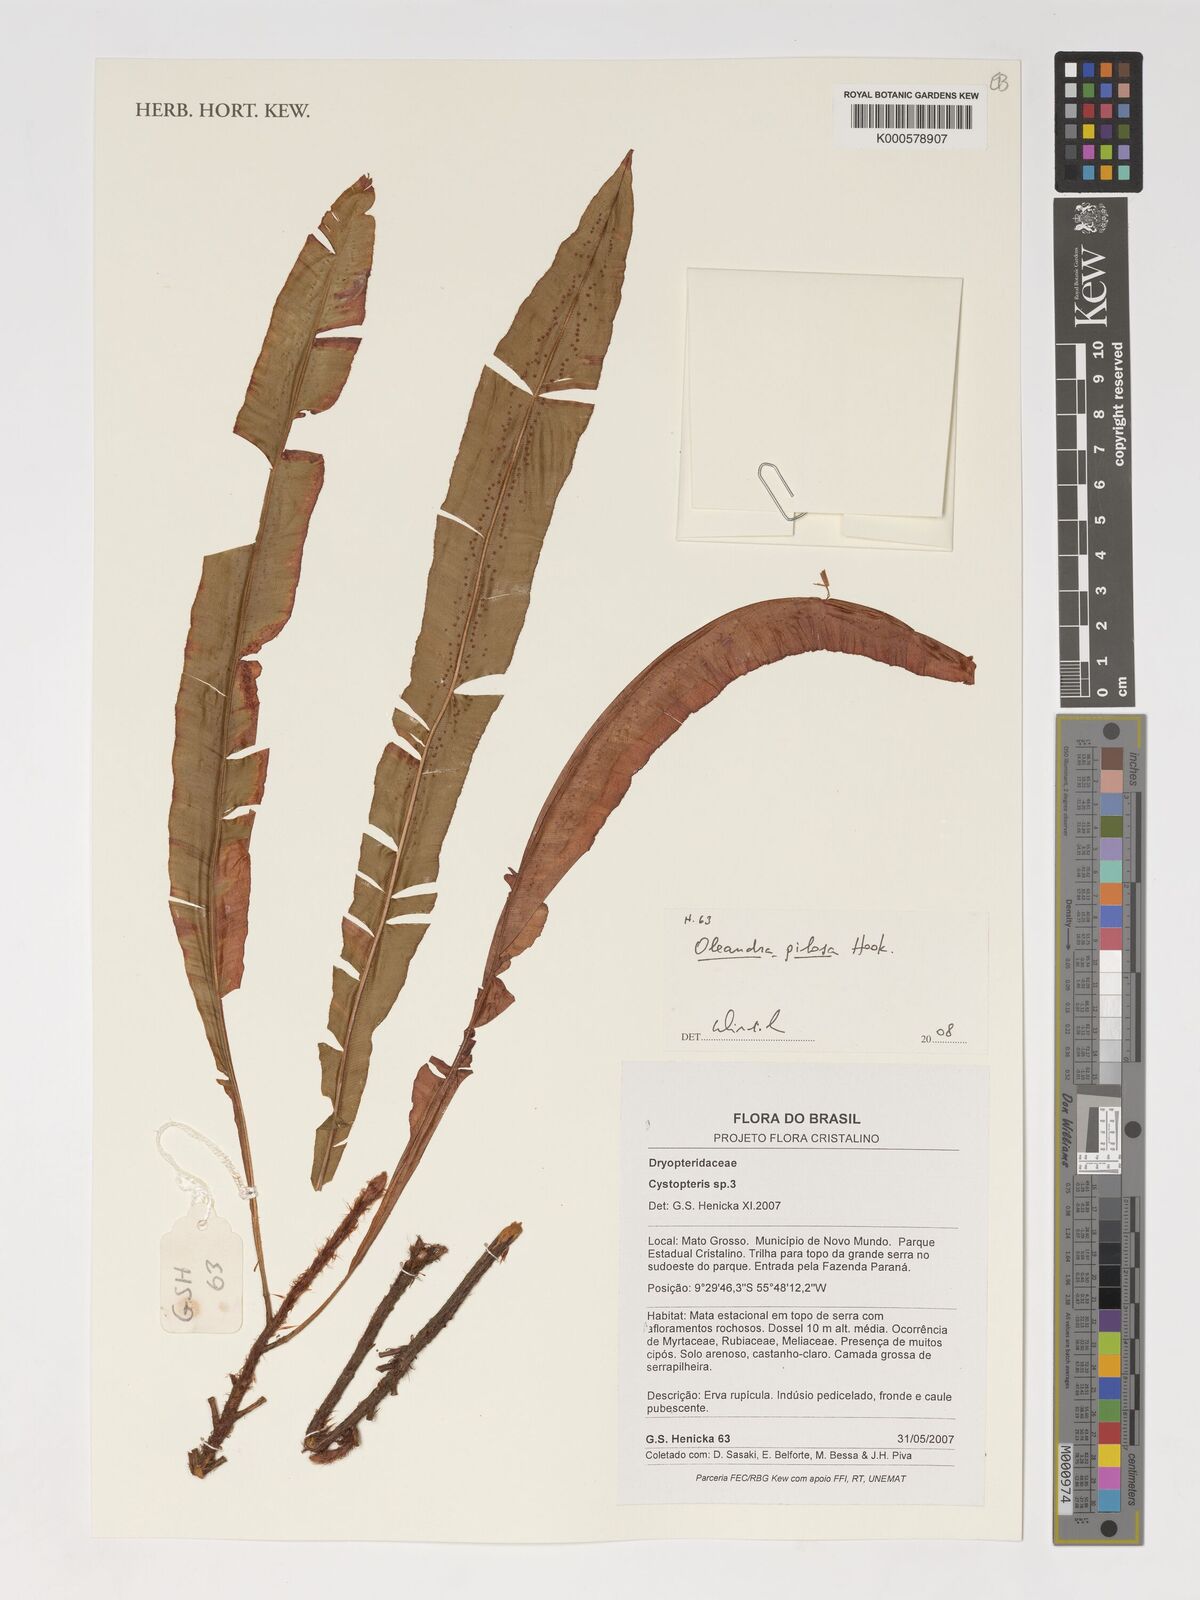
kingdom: Plantae
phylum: Tracheophyta
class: Polypodiopsida
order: Polypodiales
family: Oleandraceae
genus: Oleandra
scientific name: Oleandra pilosa
